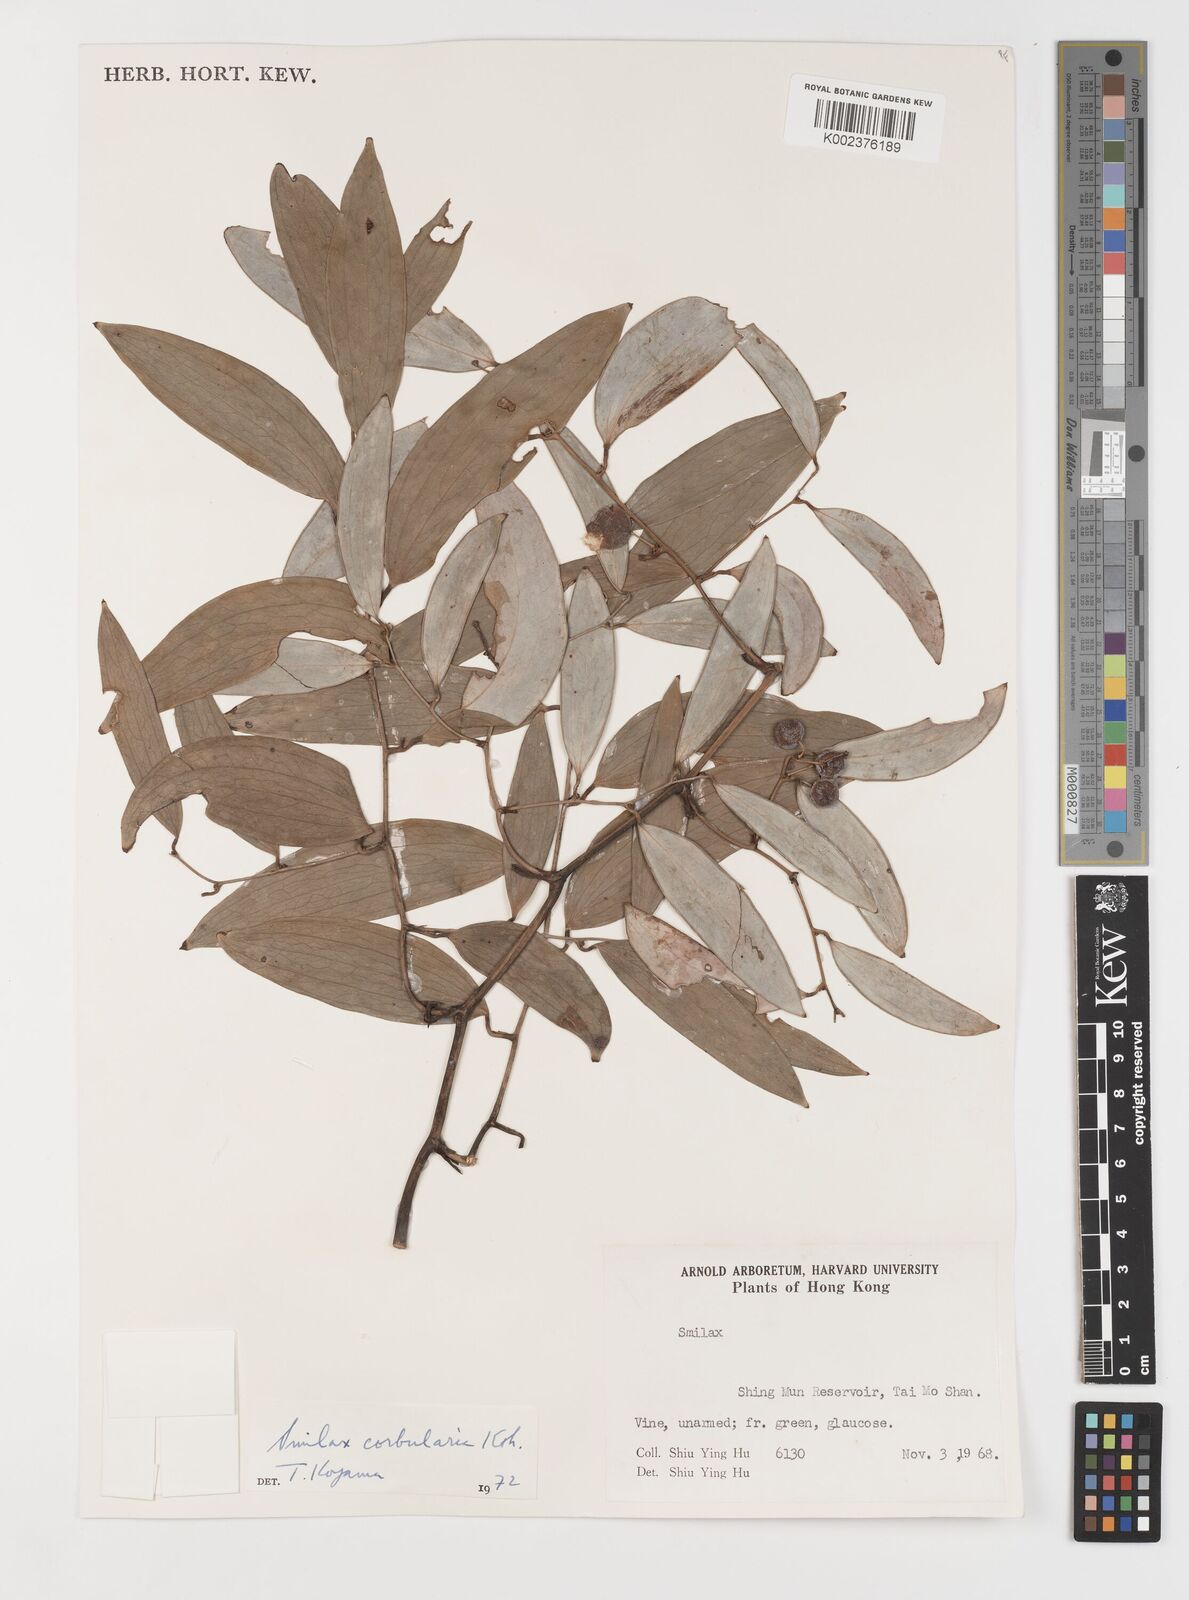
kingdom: Plantae
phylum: Tracheophyta
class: Liliopsida
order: Liliales
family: Smilacaceae
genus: Smilax
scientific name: Smilax corbularia
